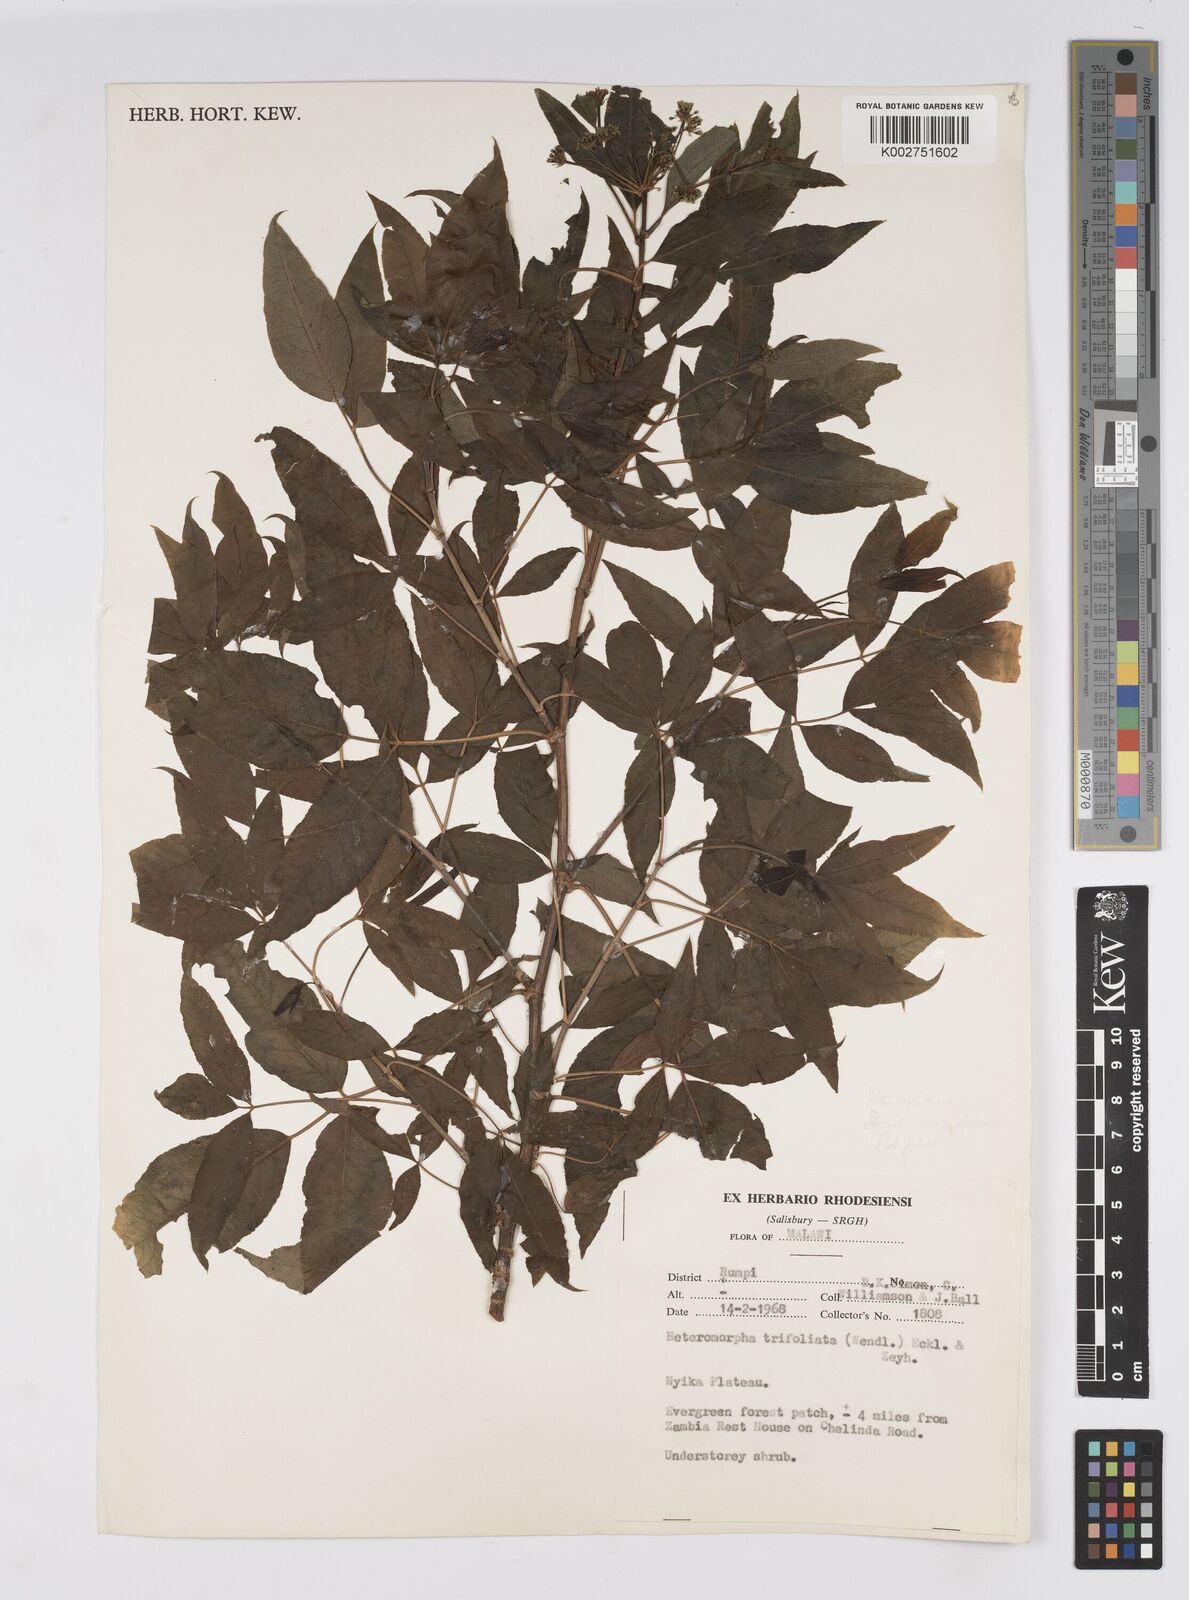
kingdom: Plantae
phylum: Tracheophyta
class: Magnoliopsida
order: Apiales
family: Apiaceae
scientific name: Apiaceae
